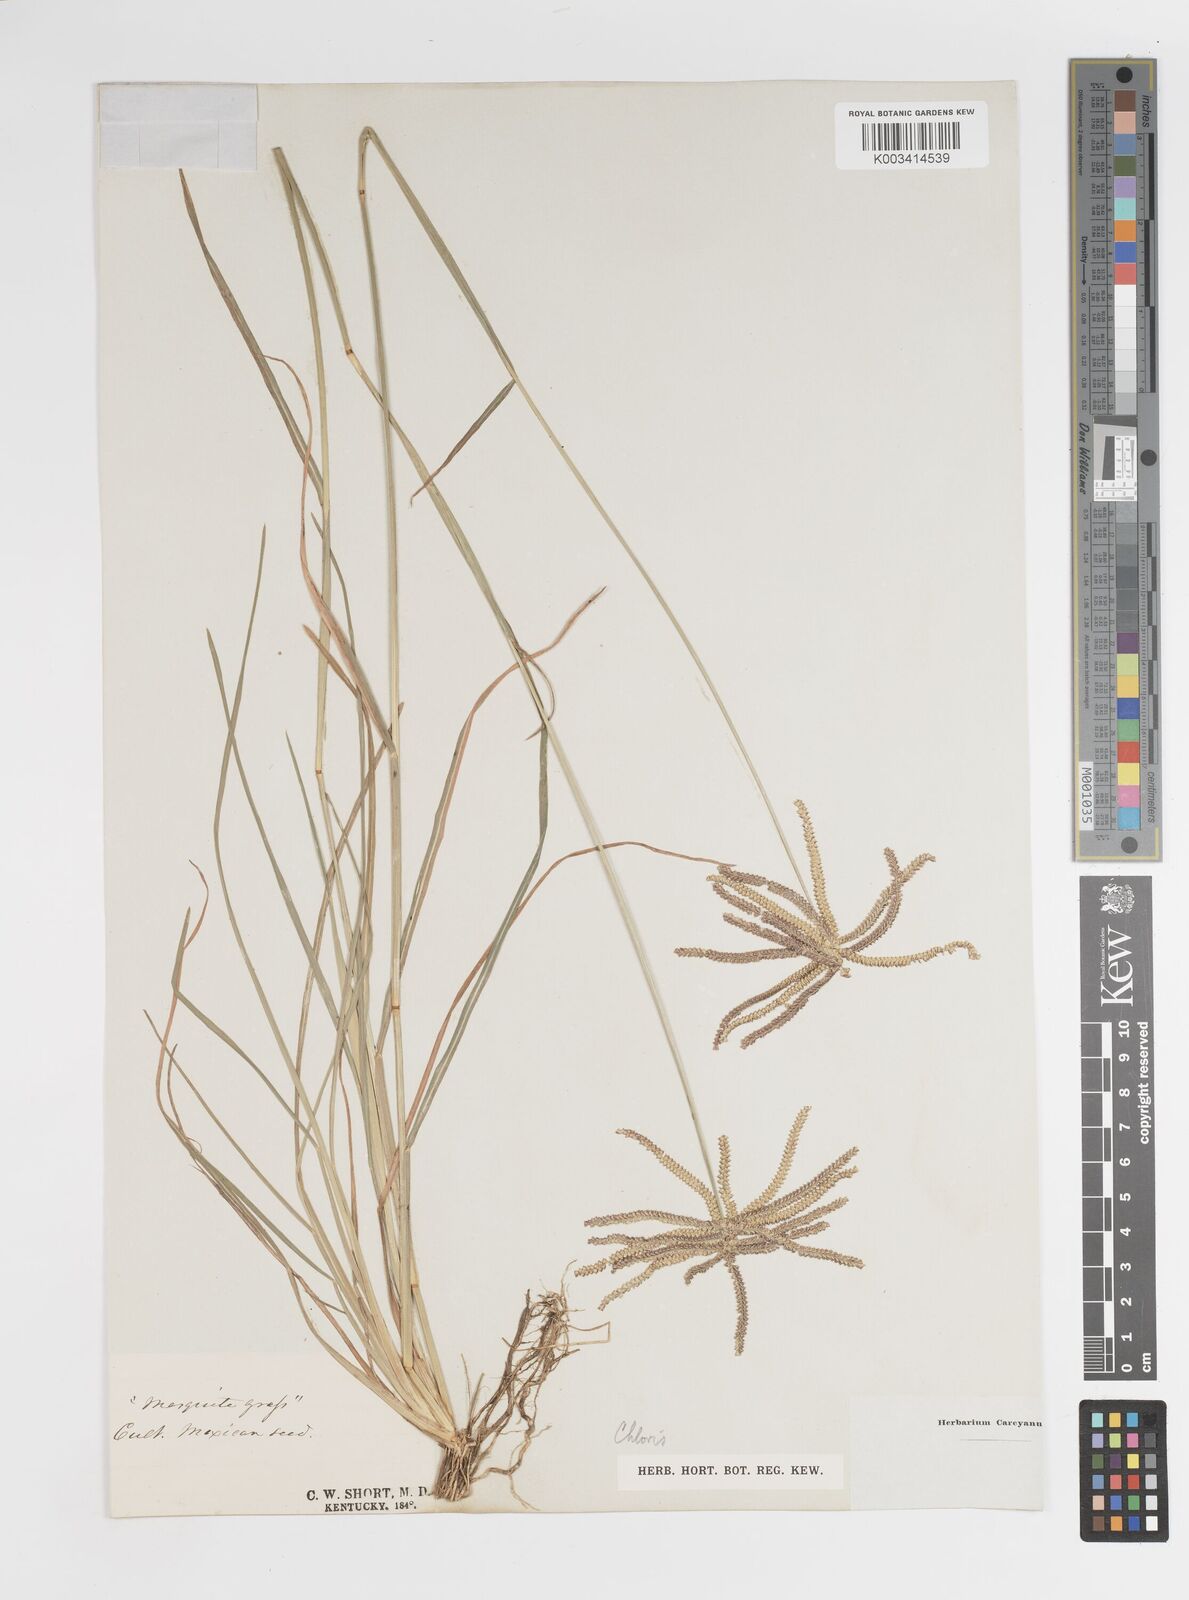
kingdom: Plantae
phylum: Tracheophyta
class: Liliopsida
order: Poales
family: Poaceae
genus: Chloris
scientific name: Chloris cucullata
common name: Hooded windmill grass
